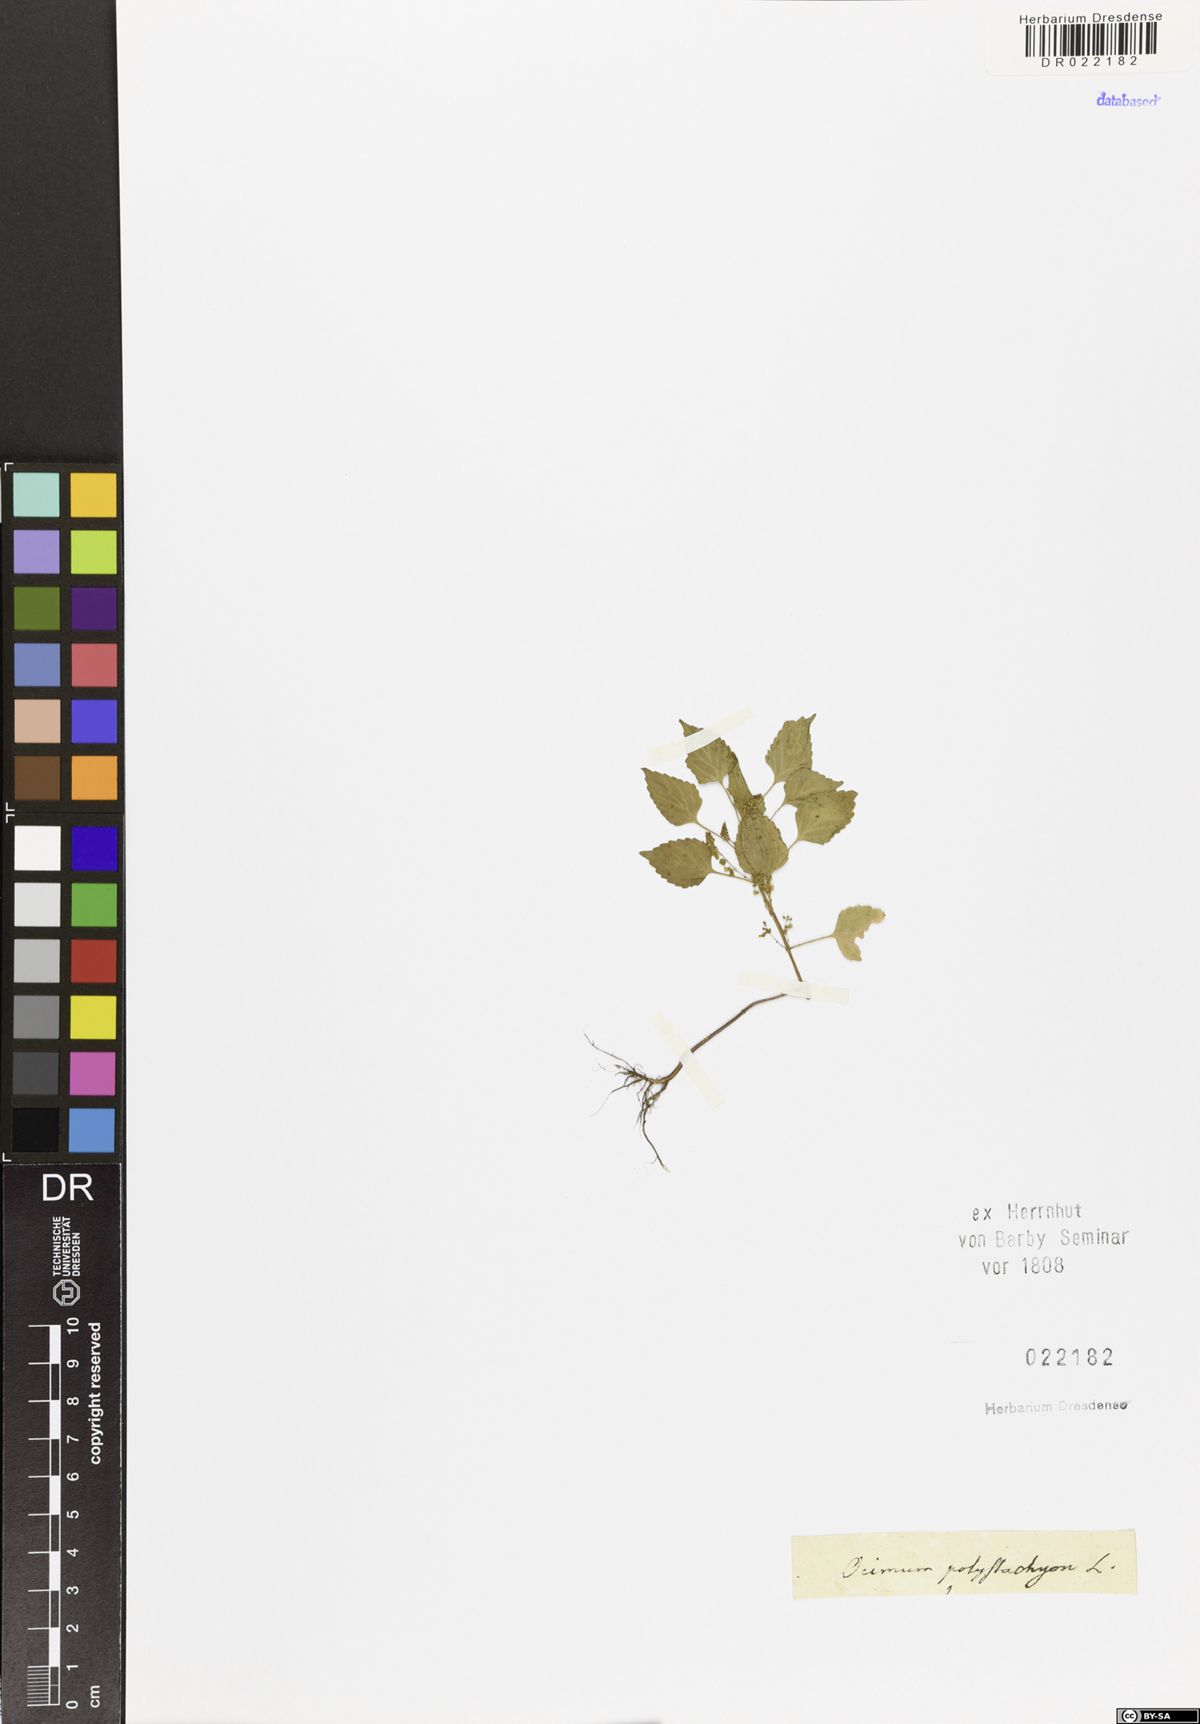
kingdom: Plantae
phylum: Tracheophyta
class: Magnoliopsida
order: Lamiales
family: Lamiaceae
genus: Basilicum
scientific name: Basilicum polystachyon
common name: Musk-basil
